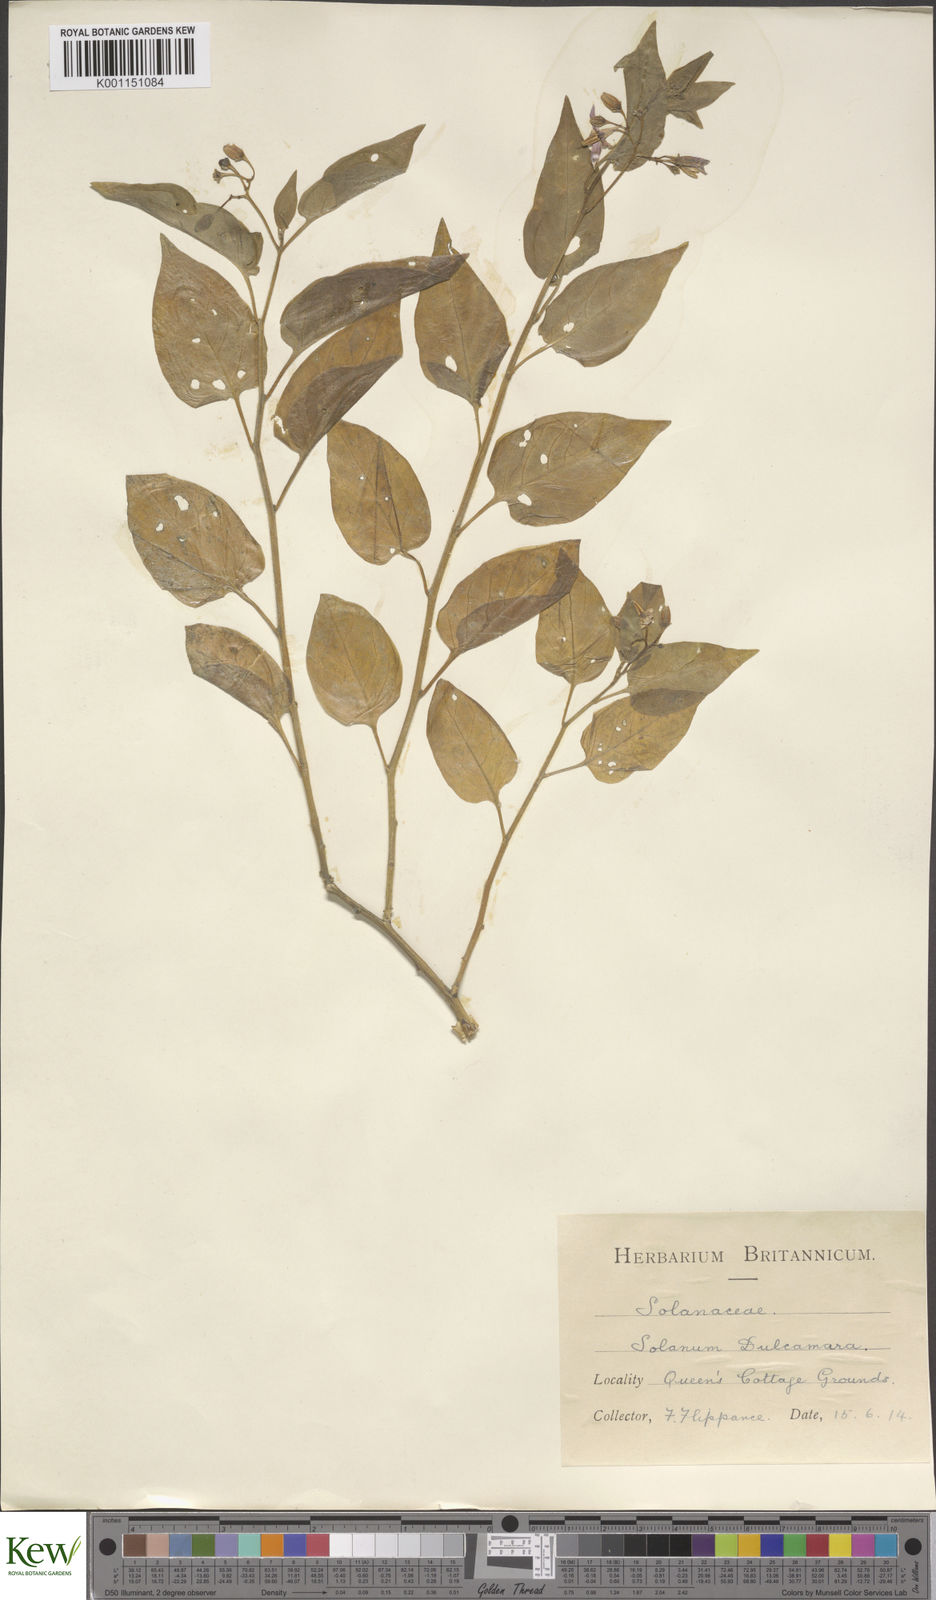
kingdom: Plantae
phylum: Tracheophyta
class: Magnoliopsida
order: Solanales
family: Solanaceae
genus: Solanum
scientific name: Solanum dulcamara
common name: Climbing nightshade
